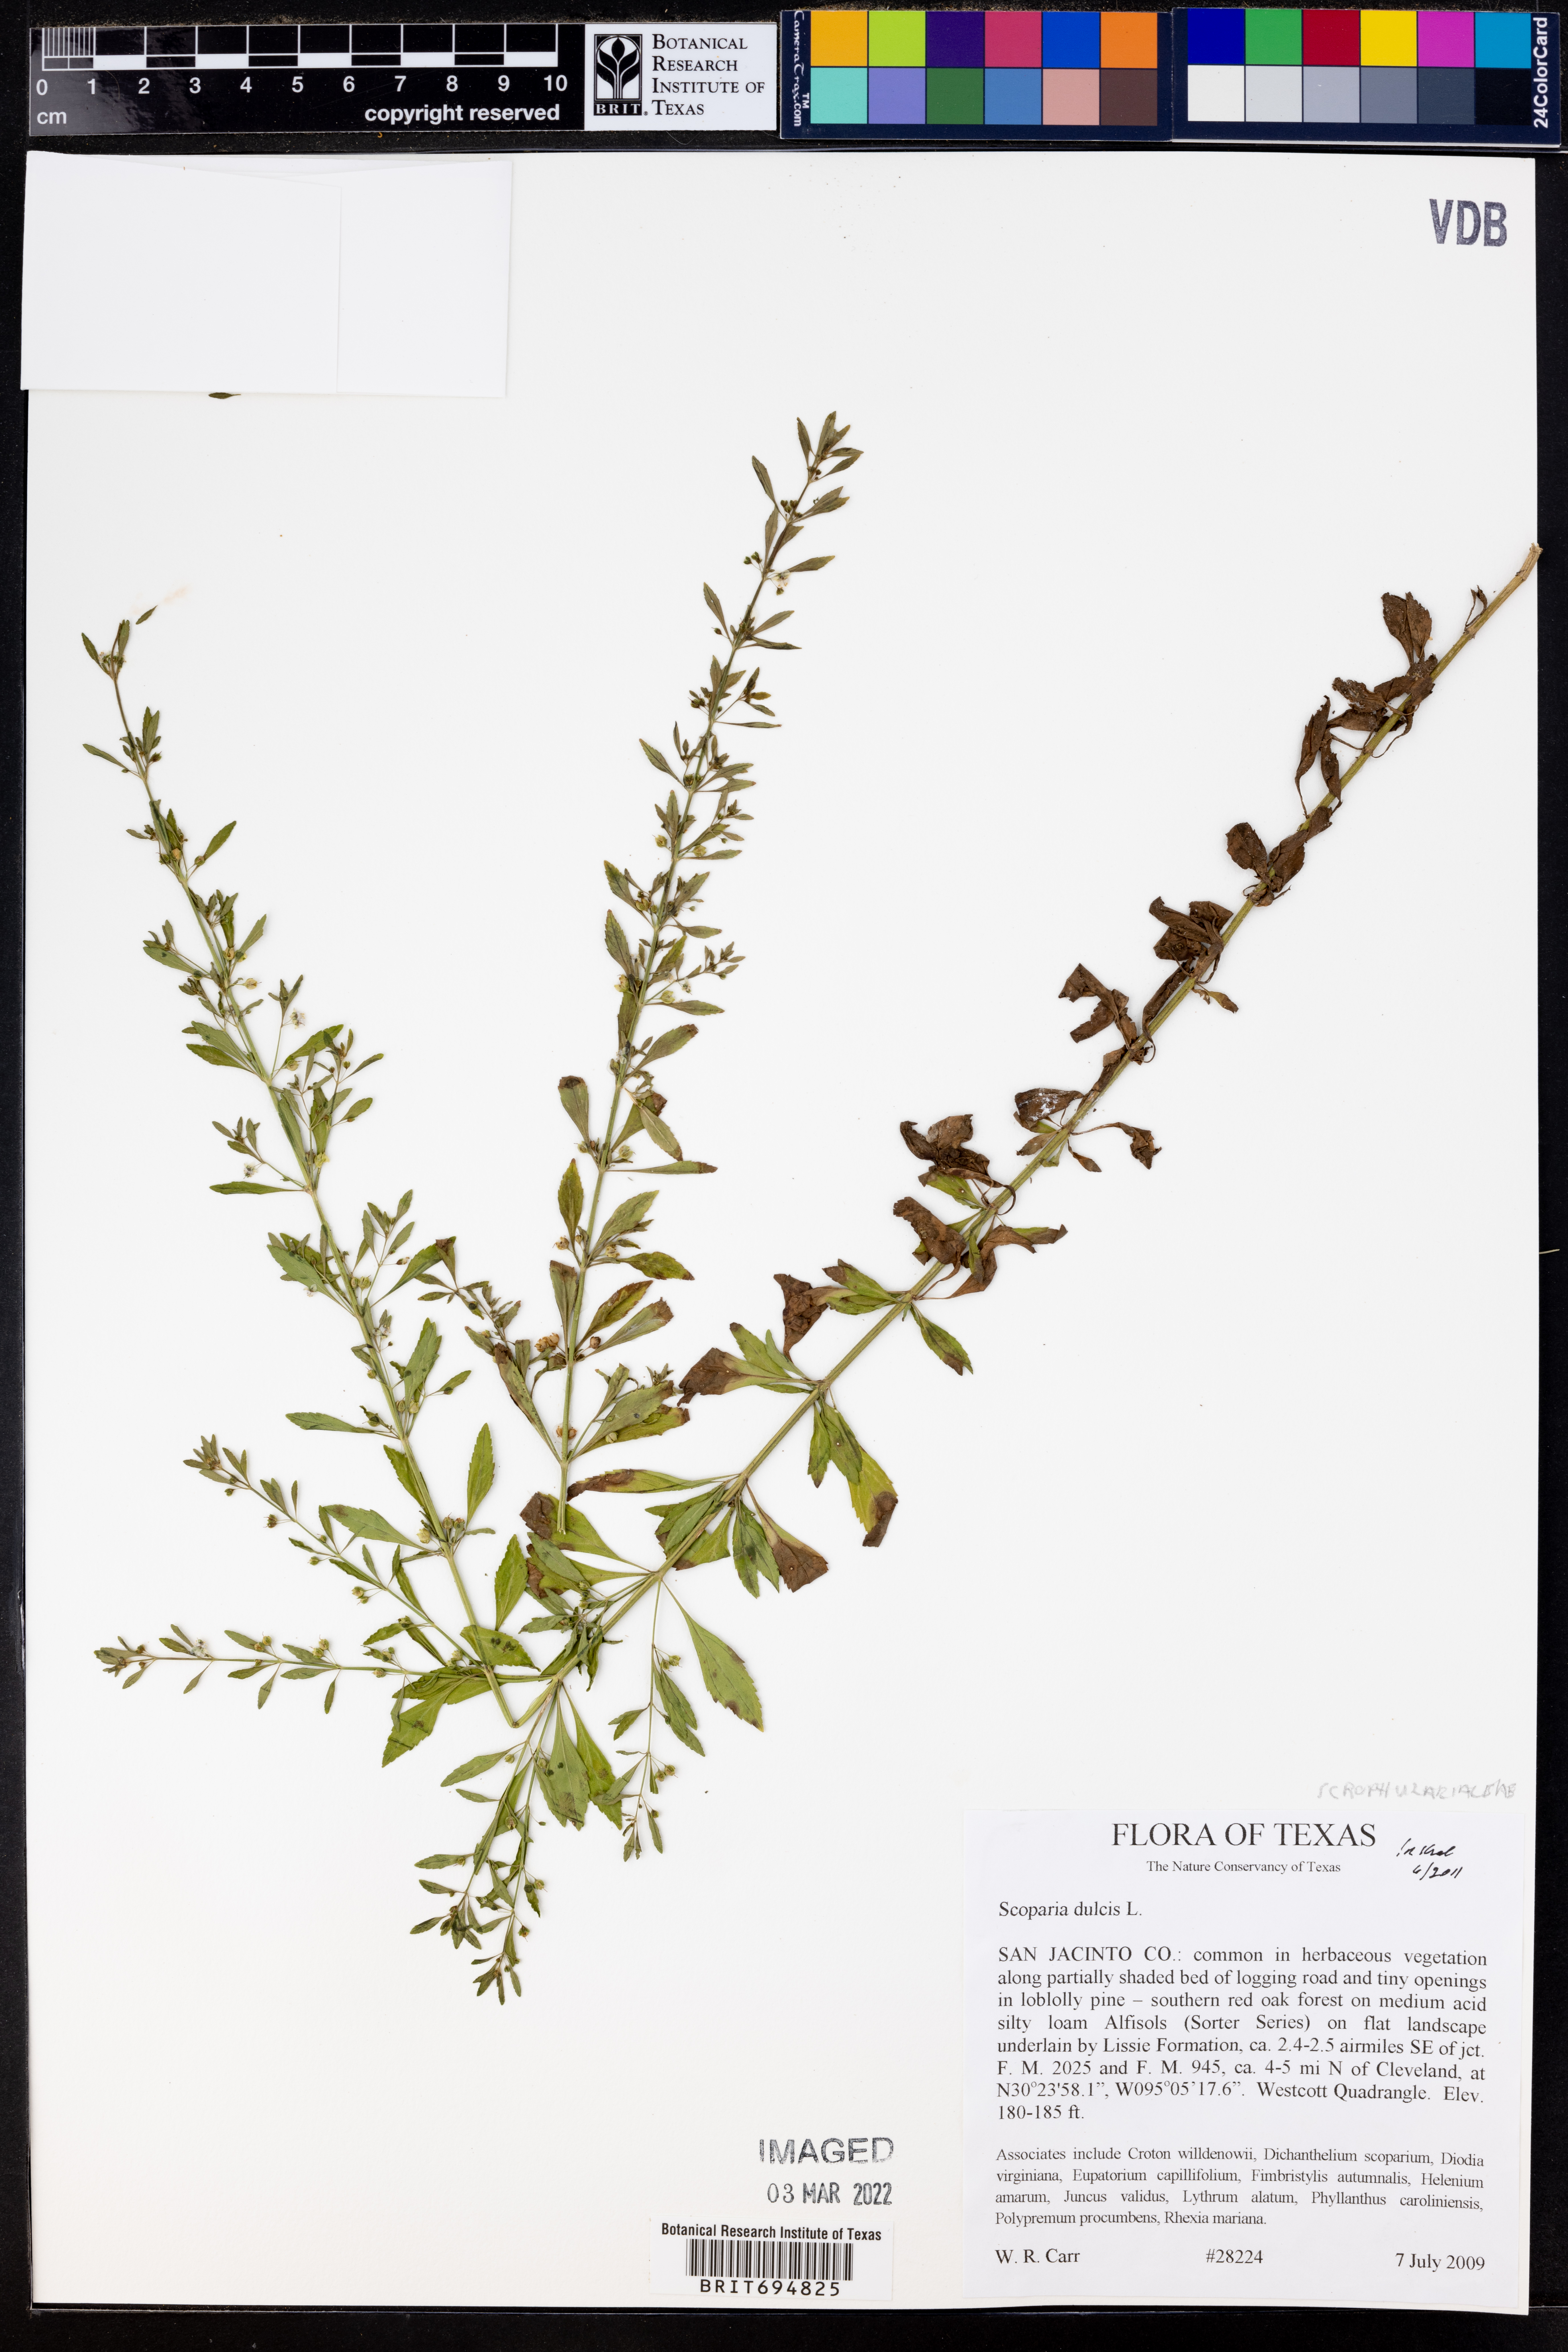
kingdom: Plantae
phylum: Tracheophyta
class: Magnoliopsida
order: Lamiales
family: Plantaginaceae
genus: Scoparia
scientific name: Scoparia dulcis
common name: Scoparia-weed
